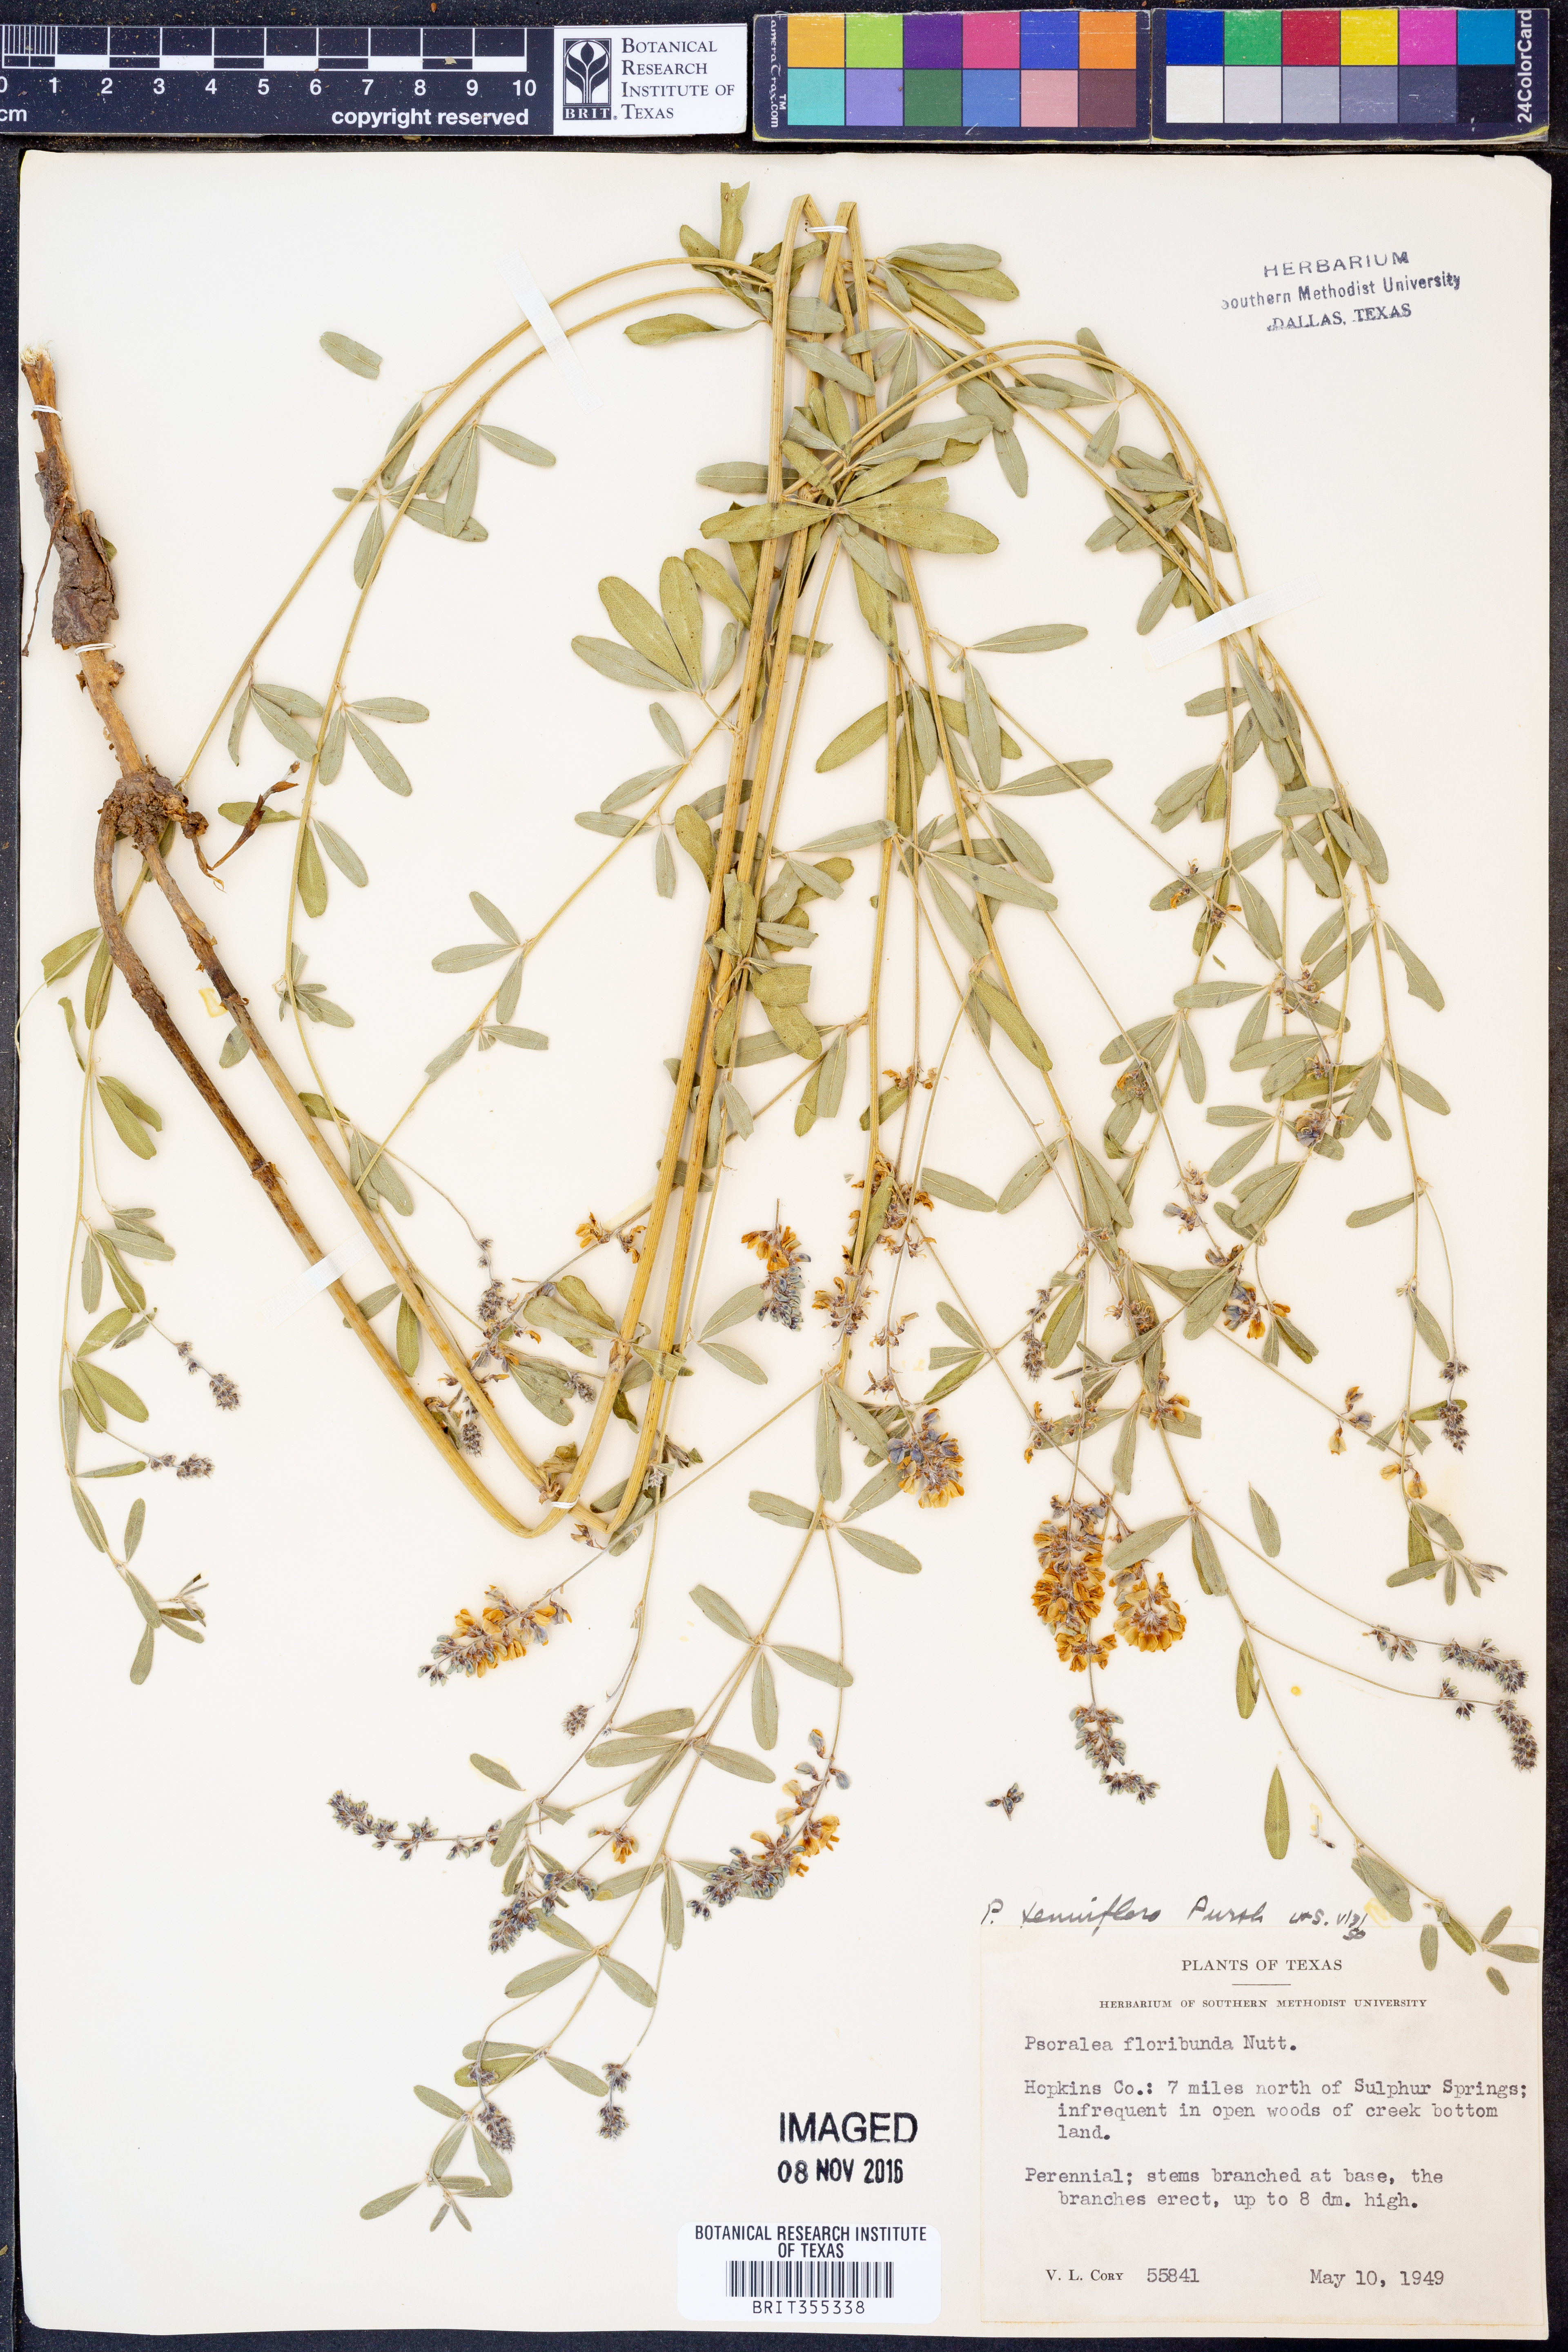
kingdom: Plantae
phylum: Tracheophyta
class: Magnoliopsida
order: Fabales
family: Fabaceae
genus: Pediomelum
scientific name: Pediomelum tenuiflorum
